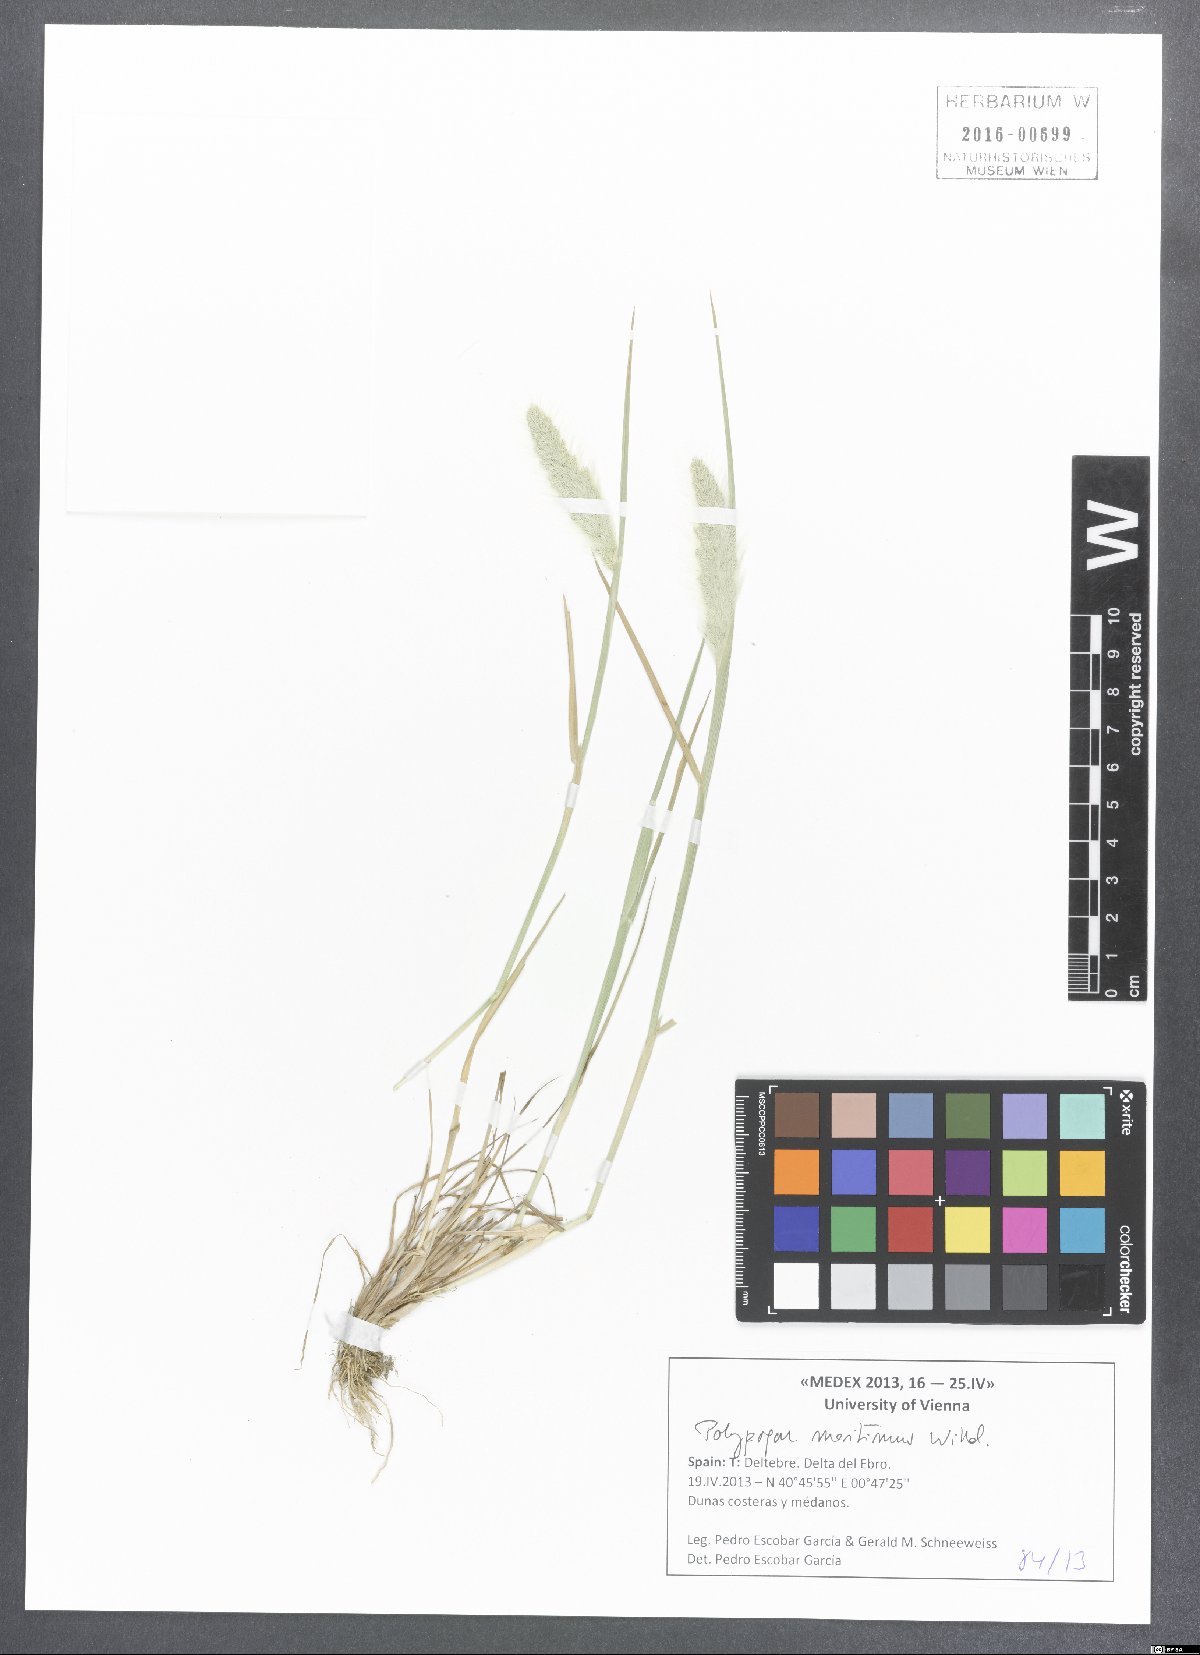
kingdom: Plantae
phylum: Tracheophyta
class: Liliopsida
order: Poales
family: Poaceae
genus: Polypogon
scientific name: Polypogon maritimus
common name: Mediterranean rabbitsfoot grass
